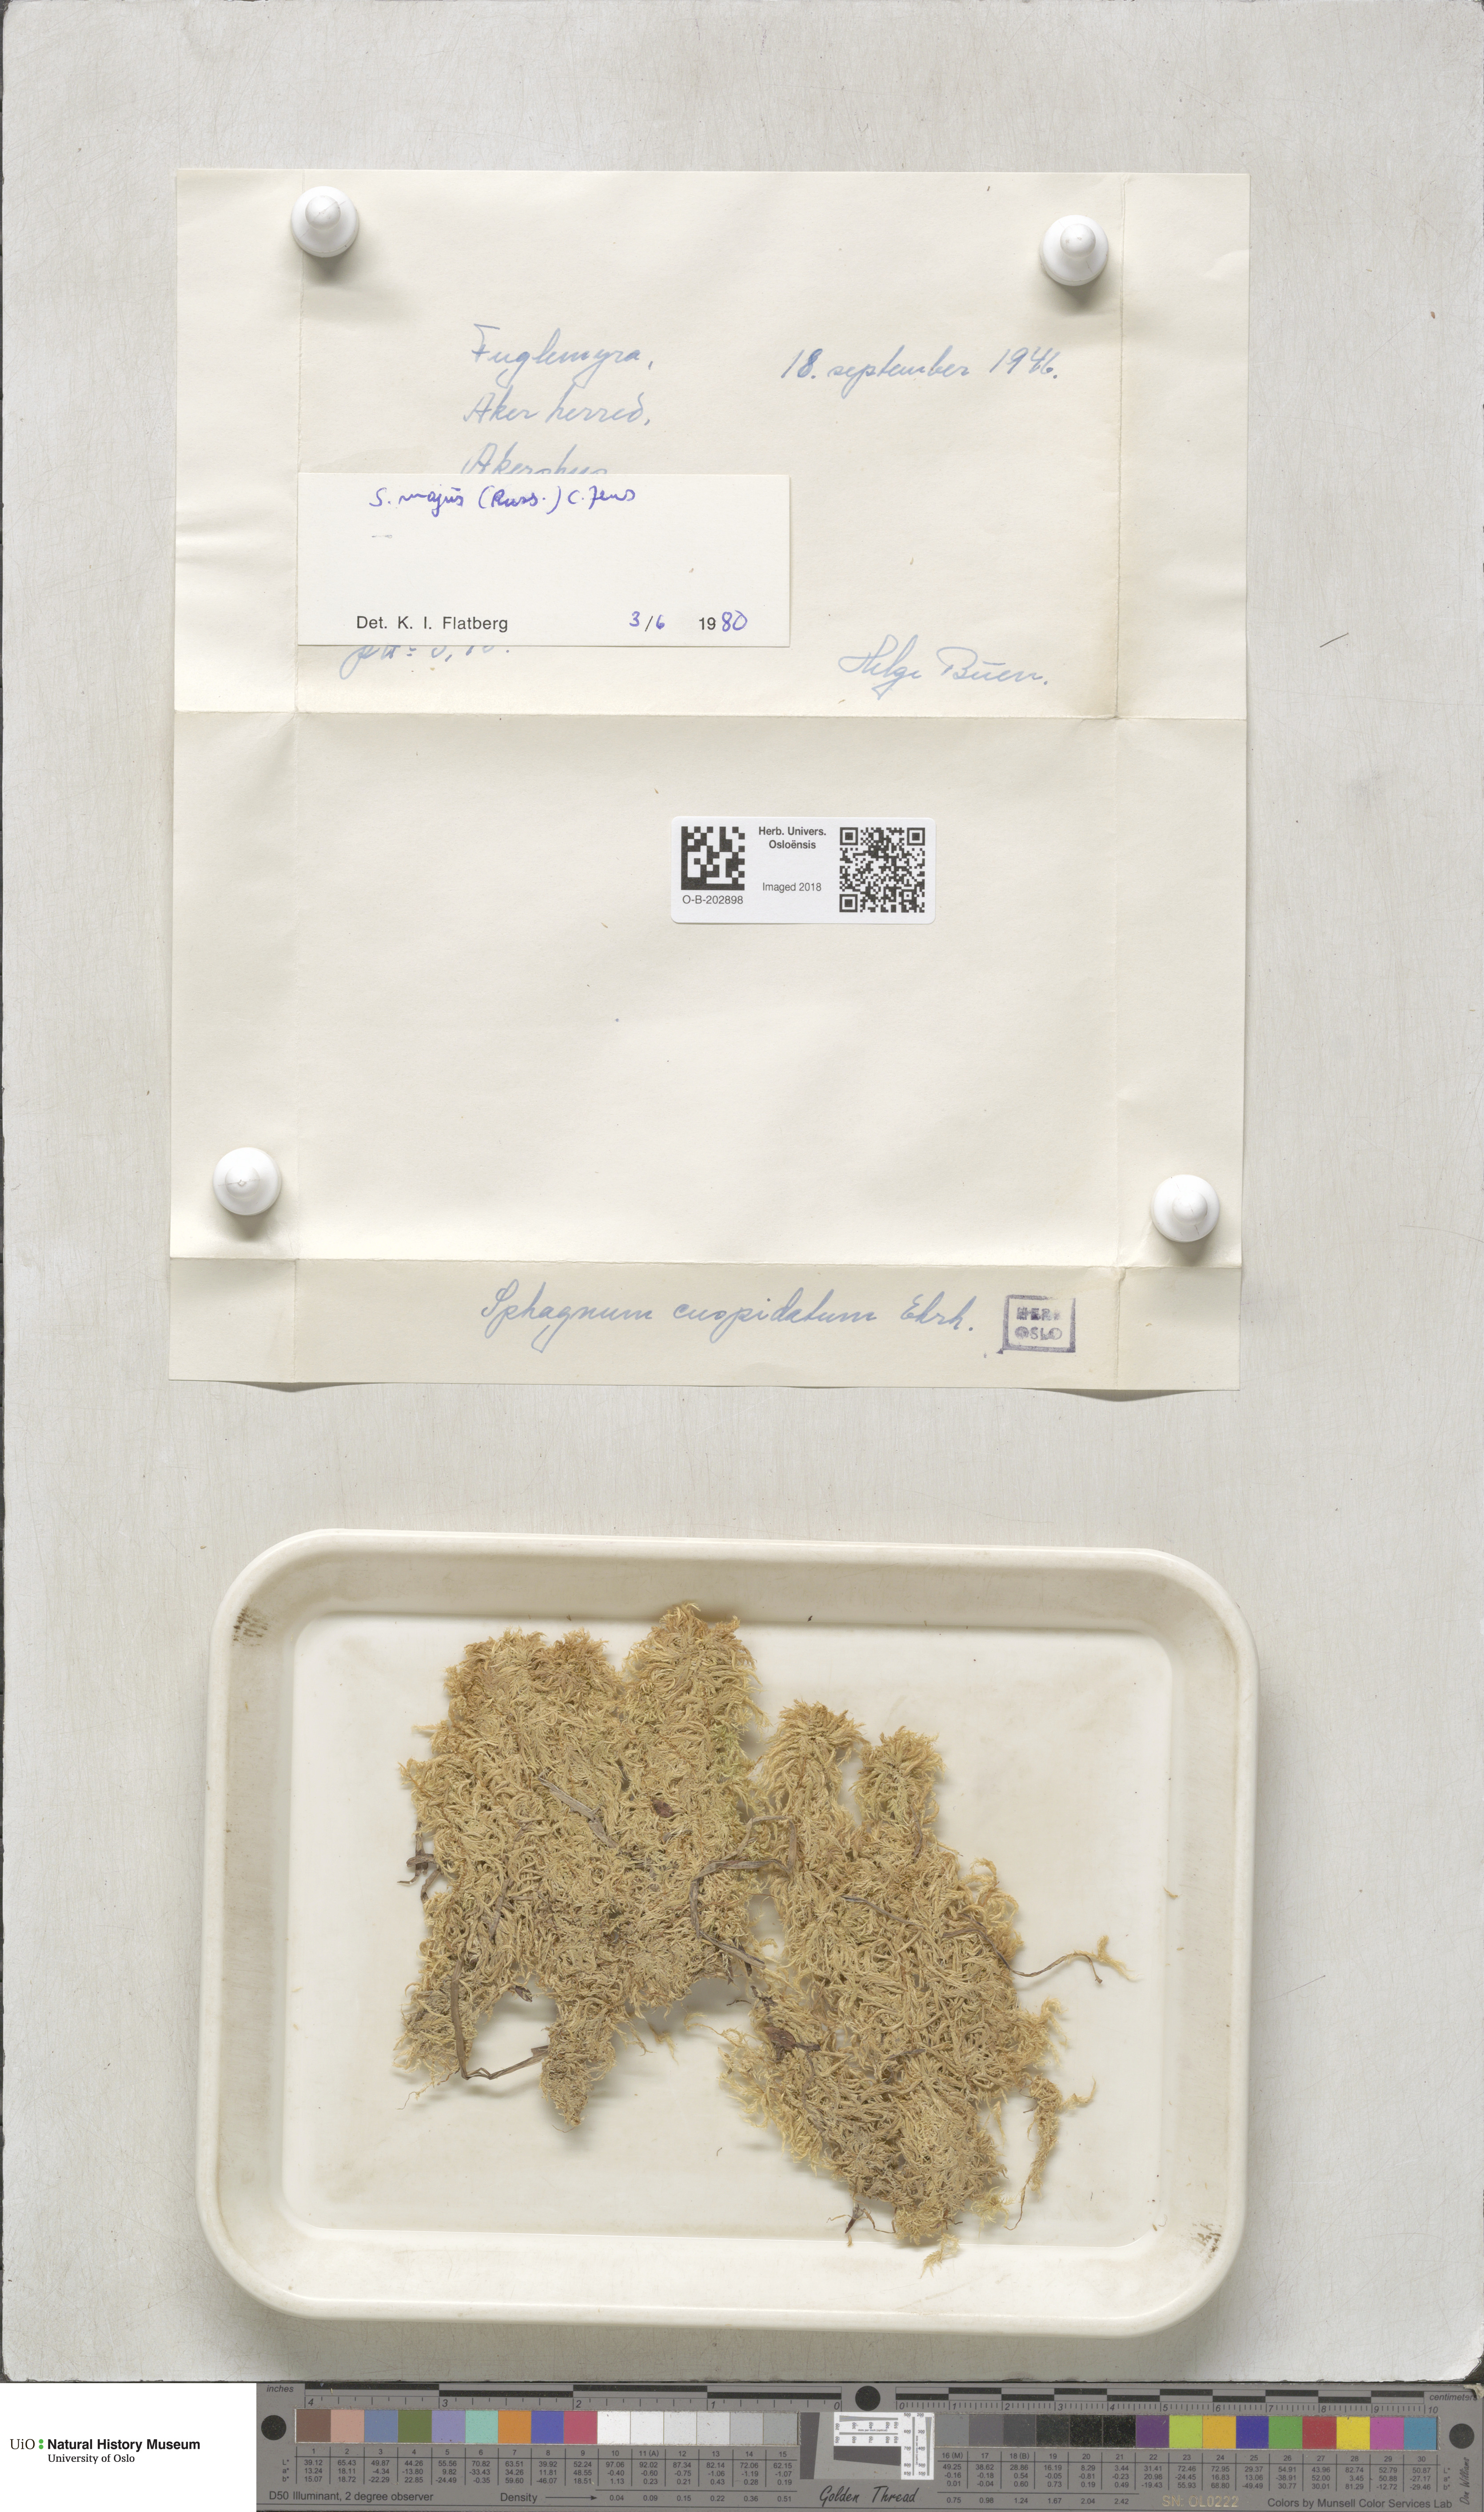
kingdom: Plantae
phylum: Bryophyta
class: Sphagnopsida
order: Sphagnales
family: Sphagnaceae
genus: Sphagnum
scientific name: Sphagnum majus
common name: Olive bog-moss
